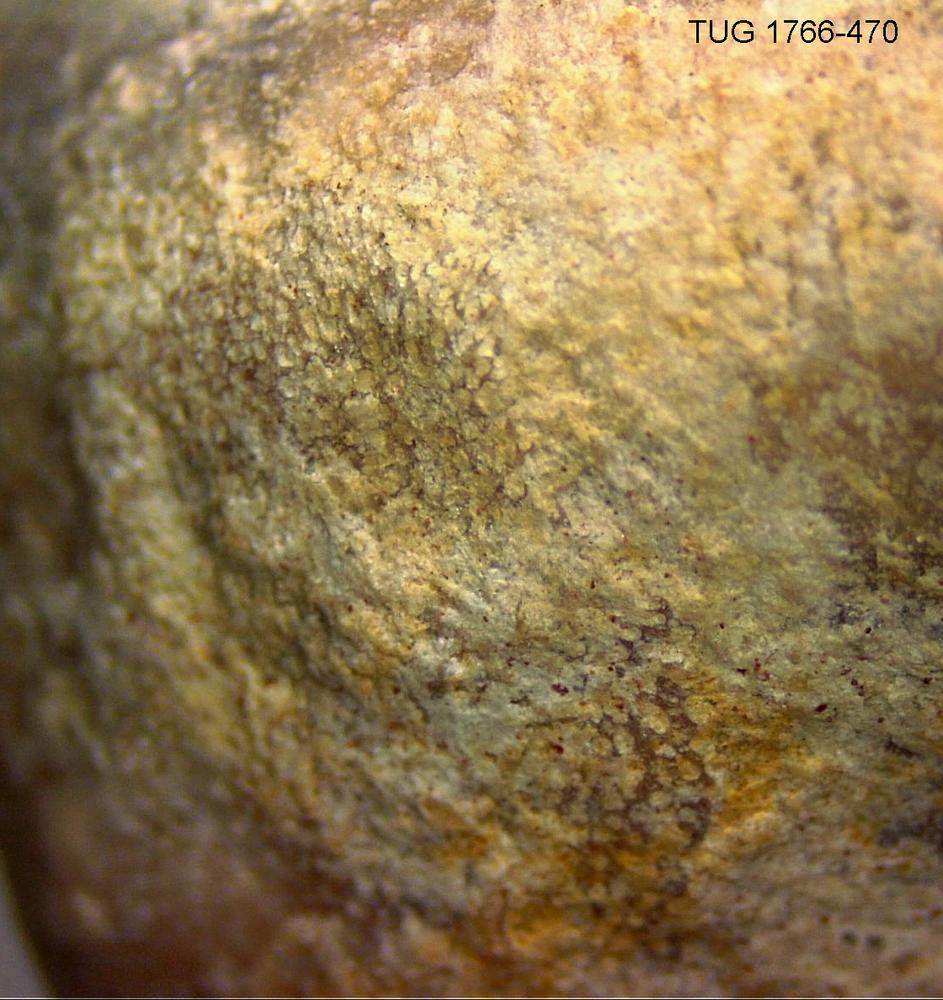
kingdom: Animalia
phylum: Bryozoa
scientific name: Bryozoa
